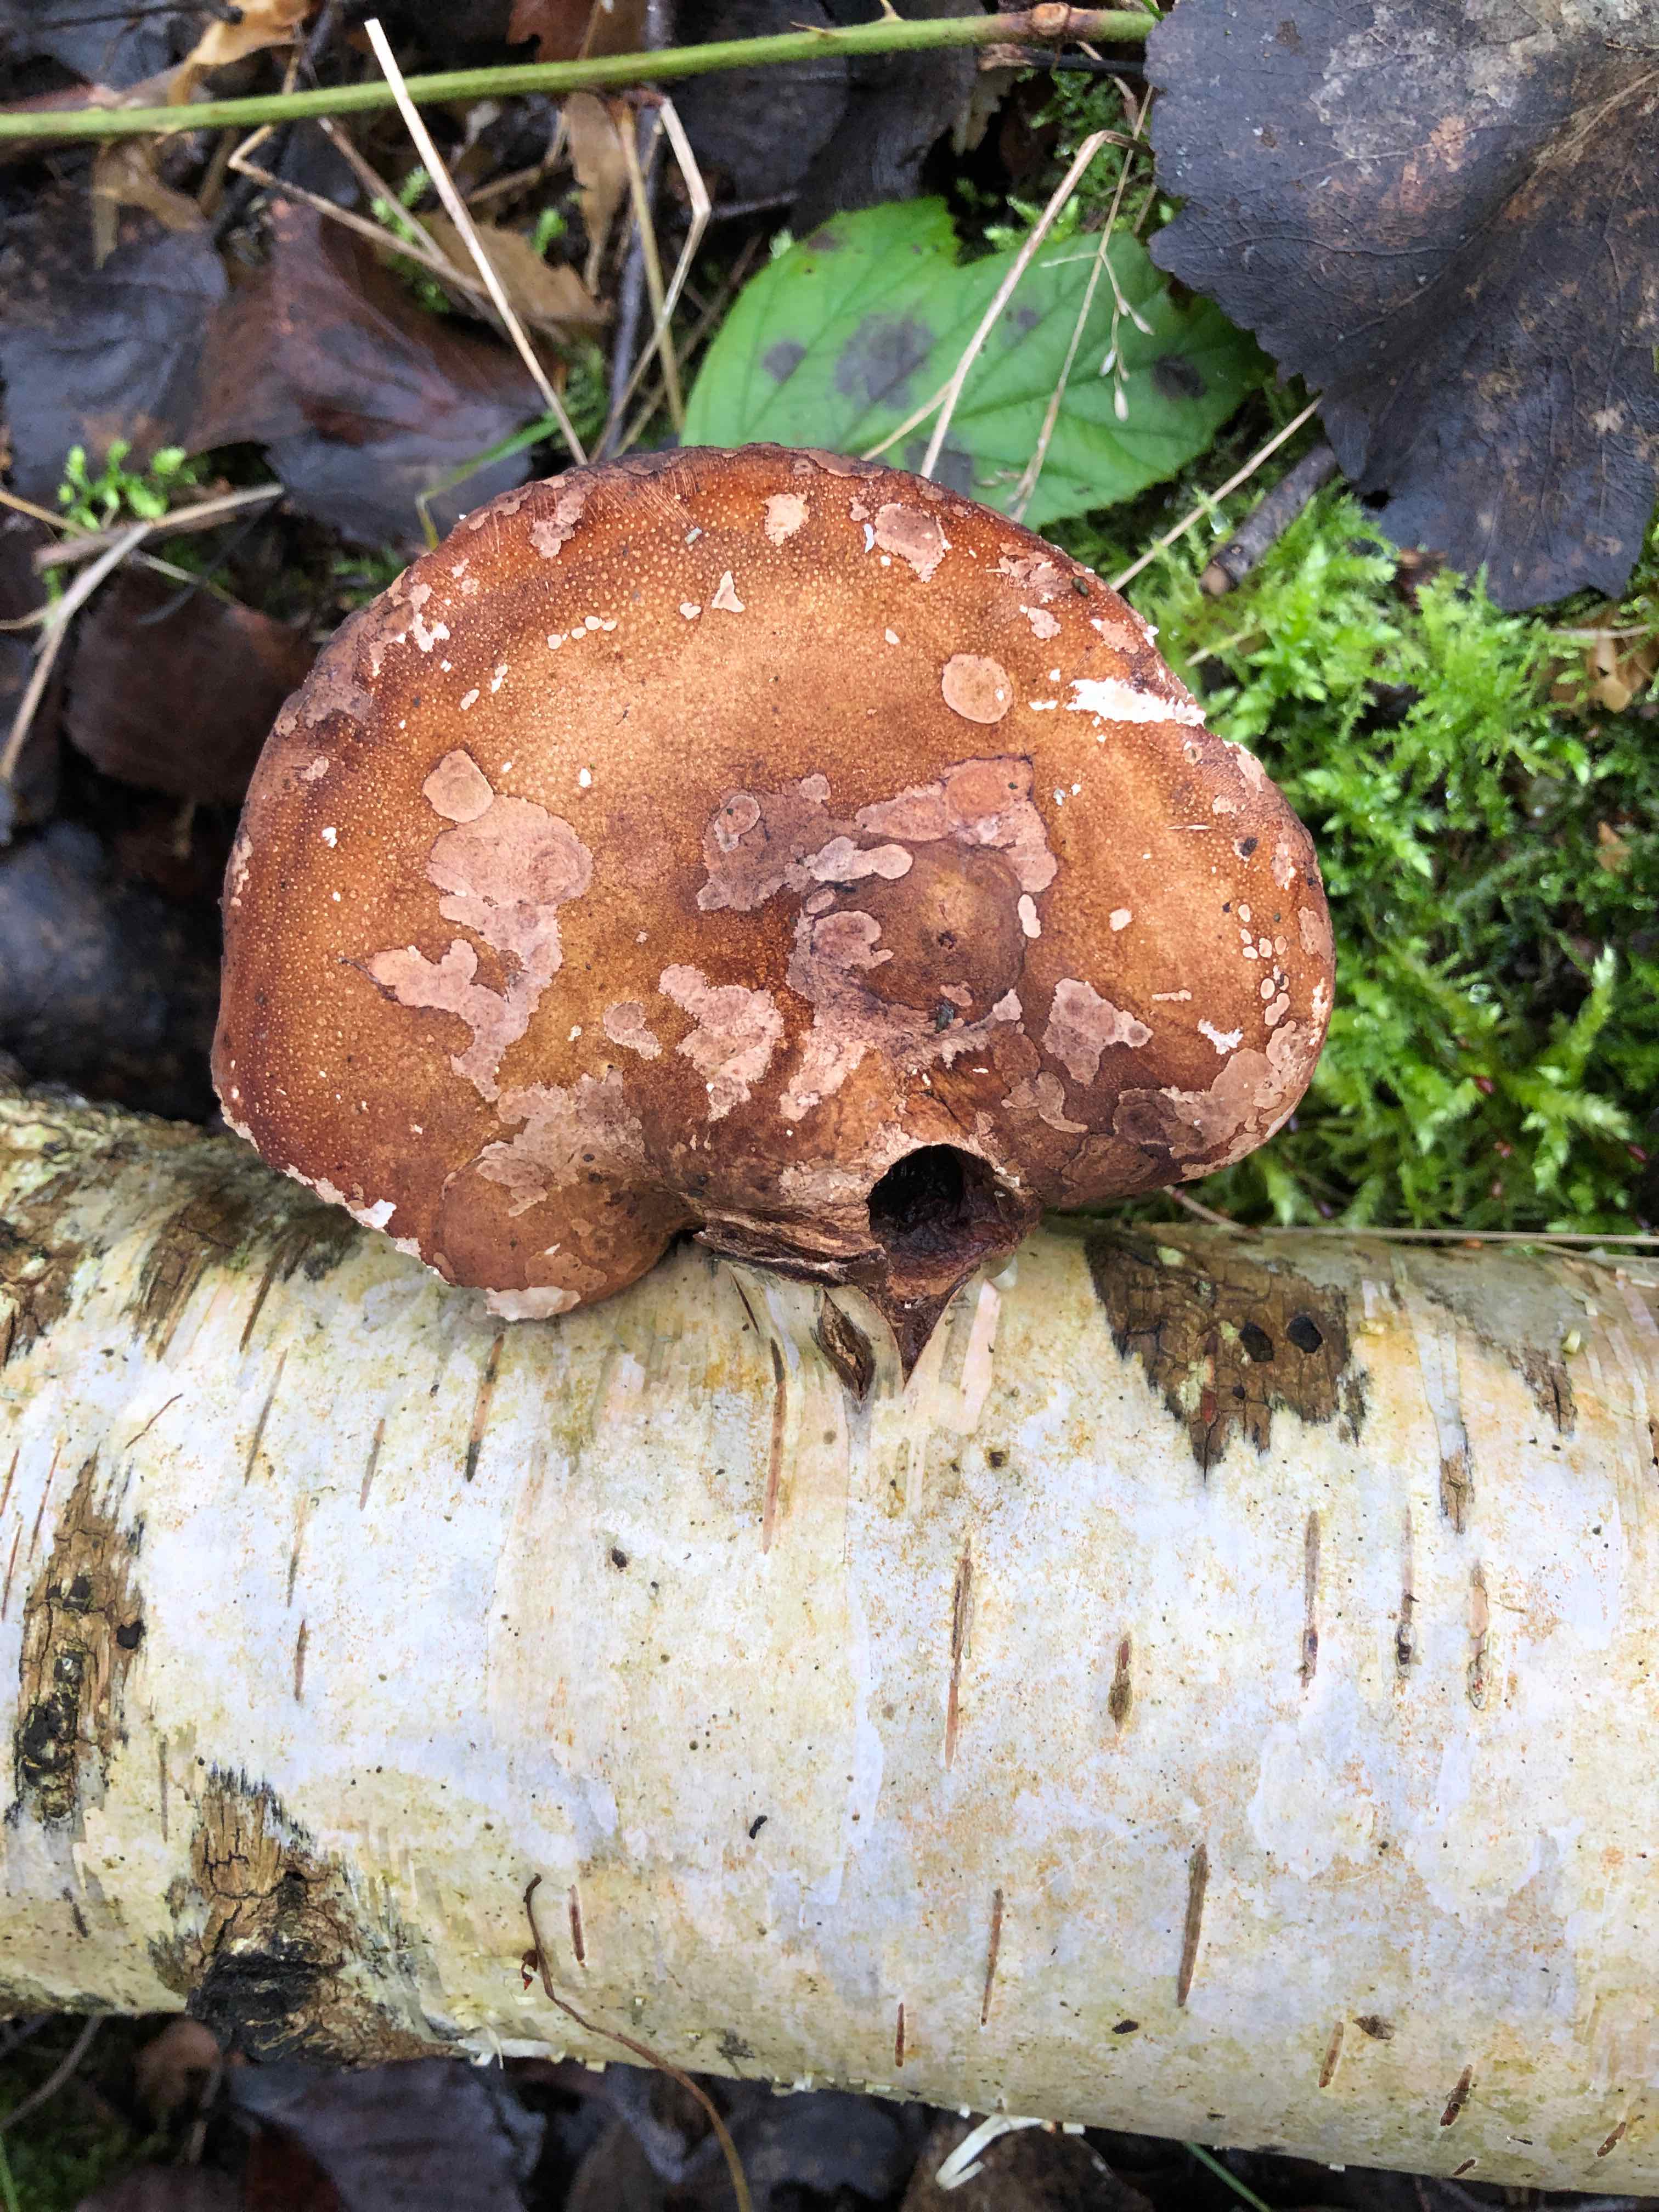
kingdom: Fungi
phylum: Basidiomycota
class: Agaricomycetes
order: Polyporales
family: Fomitopsidaceae
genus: Fomitopsis
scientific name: Fomitopsis betulina
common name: birkeporesvamp
